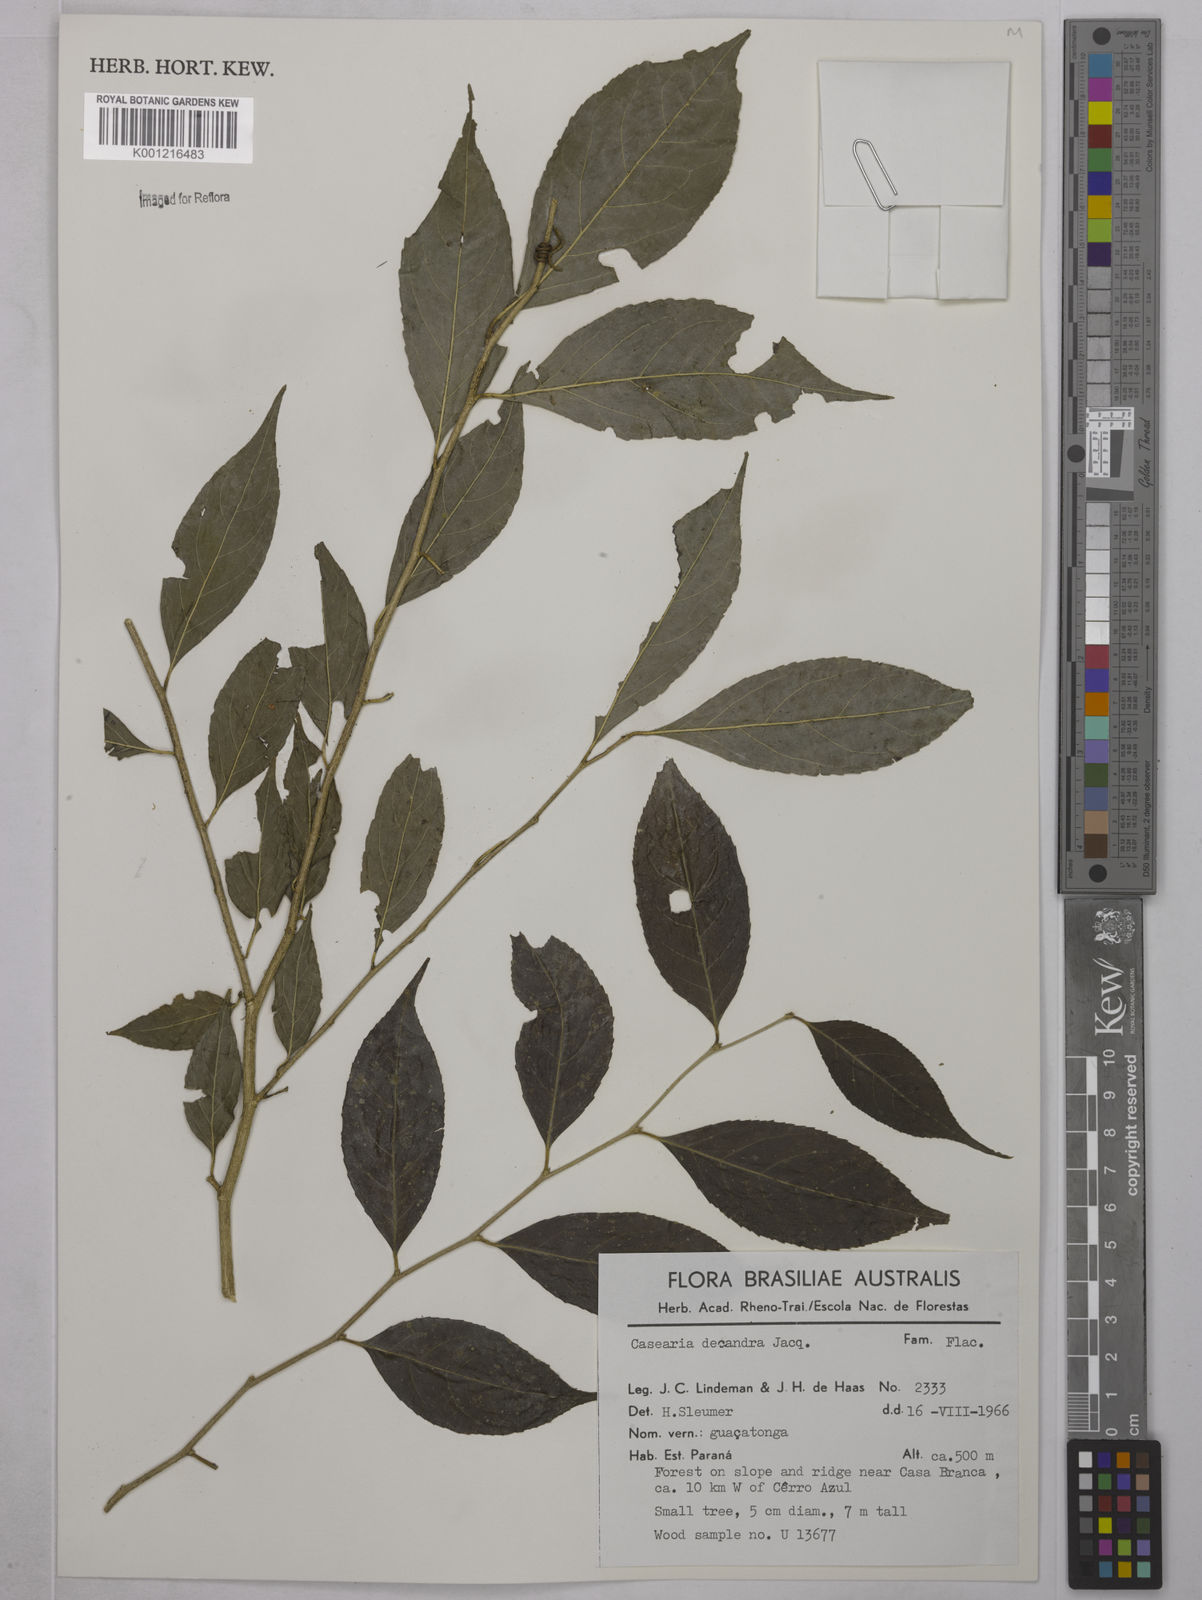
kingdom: Plantae
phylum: Tracheophyta
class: Magnoliopsida
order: Malpighiales
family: Salicaceae
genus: Casearia
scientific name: Casearia decandra
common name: Crack open
